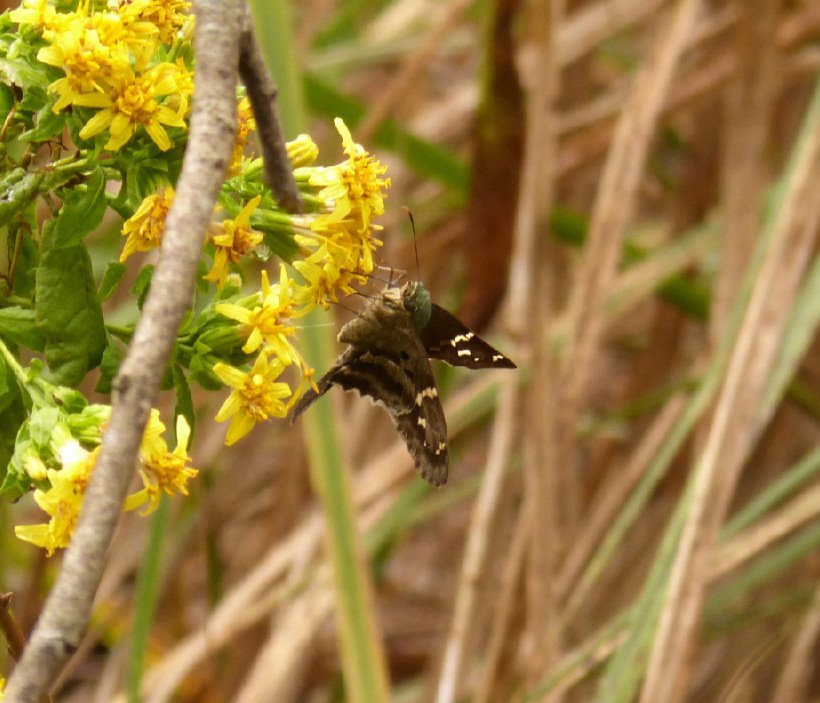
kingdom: Animalia
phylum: Arthropoda
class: Insecta
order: Lepidoptera
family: Hesperiidae
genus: Urbanus
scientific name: Urbanus proteus
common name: Long-tailed Skipper
